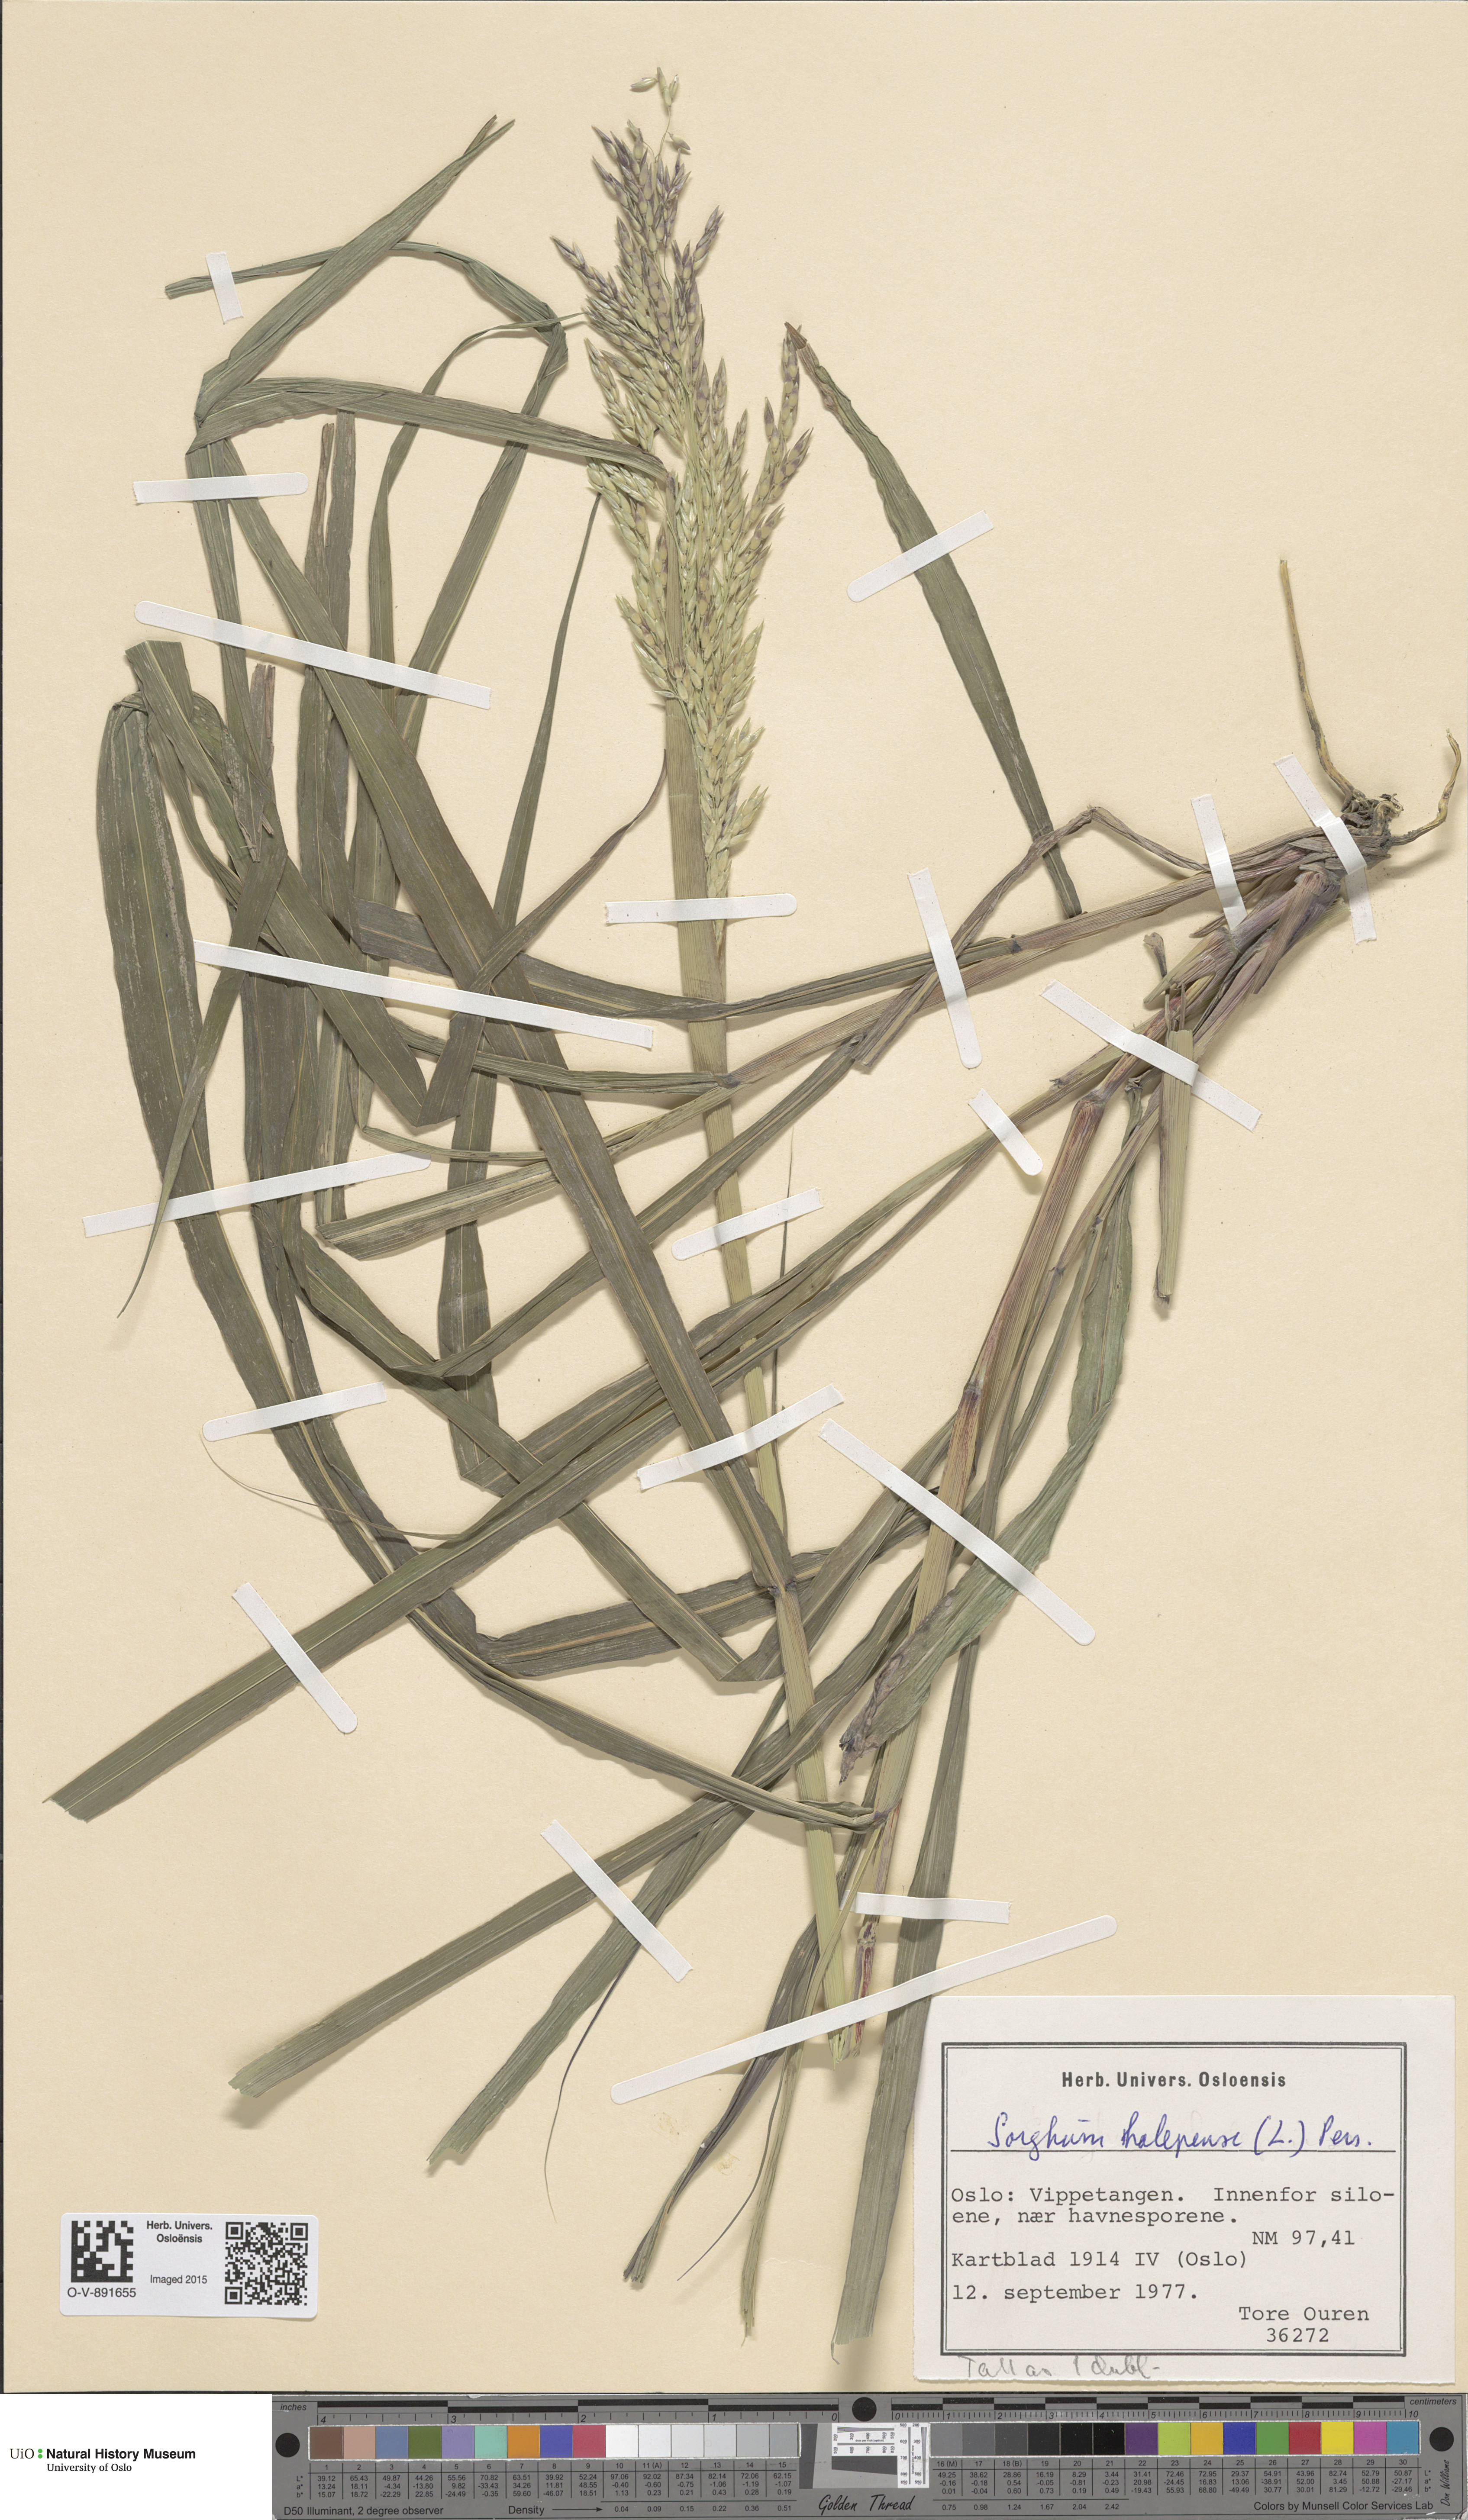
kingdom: Plantae
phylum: Tracheophyta
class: Liliopsida
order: Poales
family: Poaceae
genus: Sorghum
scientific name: Sorghum halepense
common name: Johnson-grass
